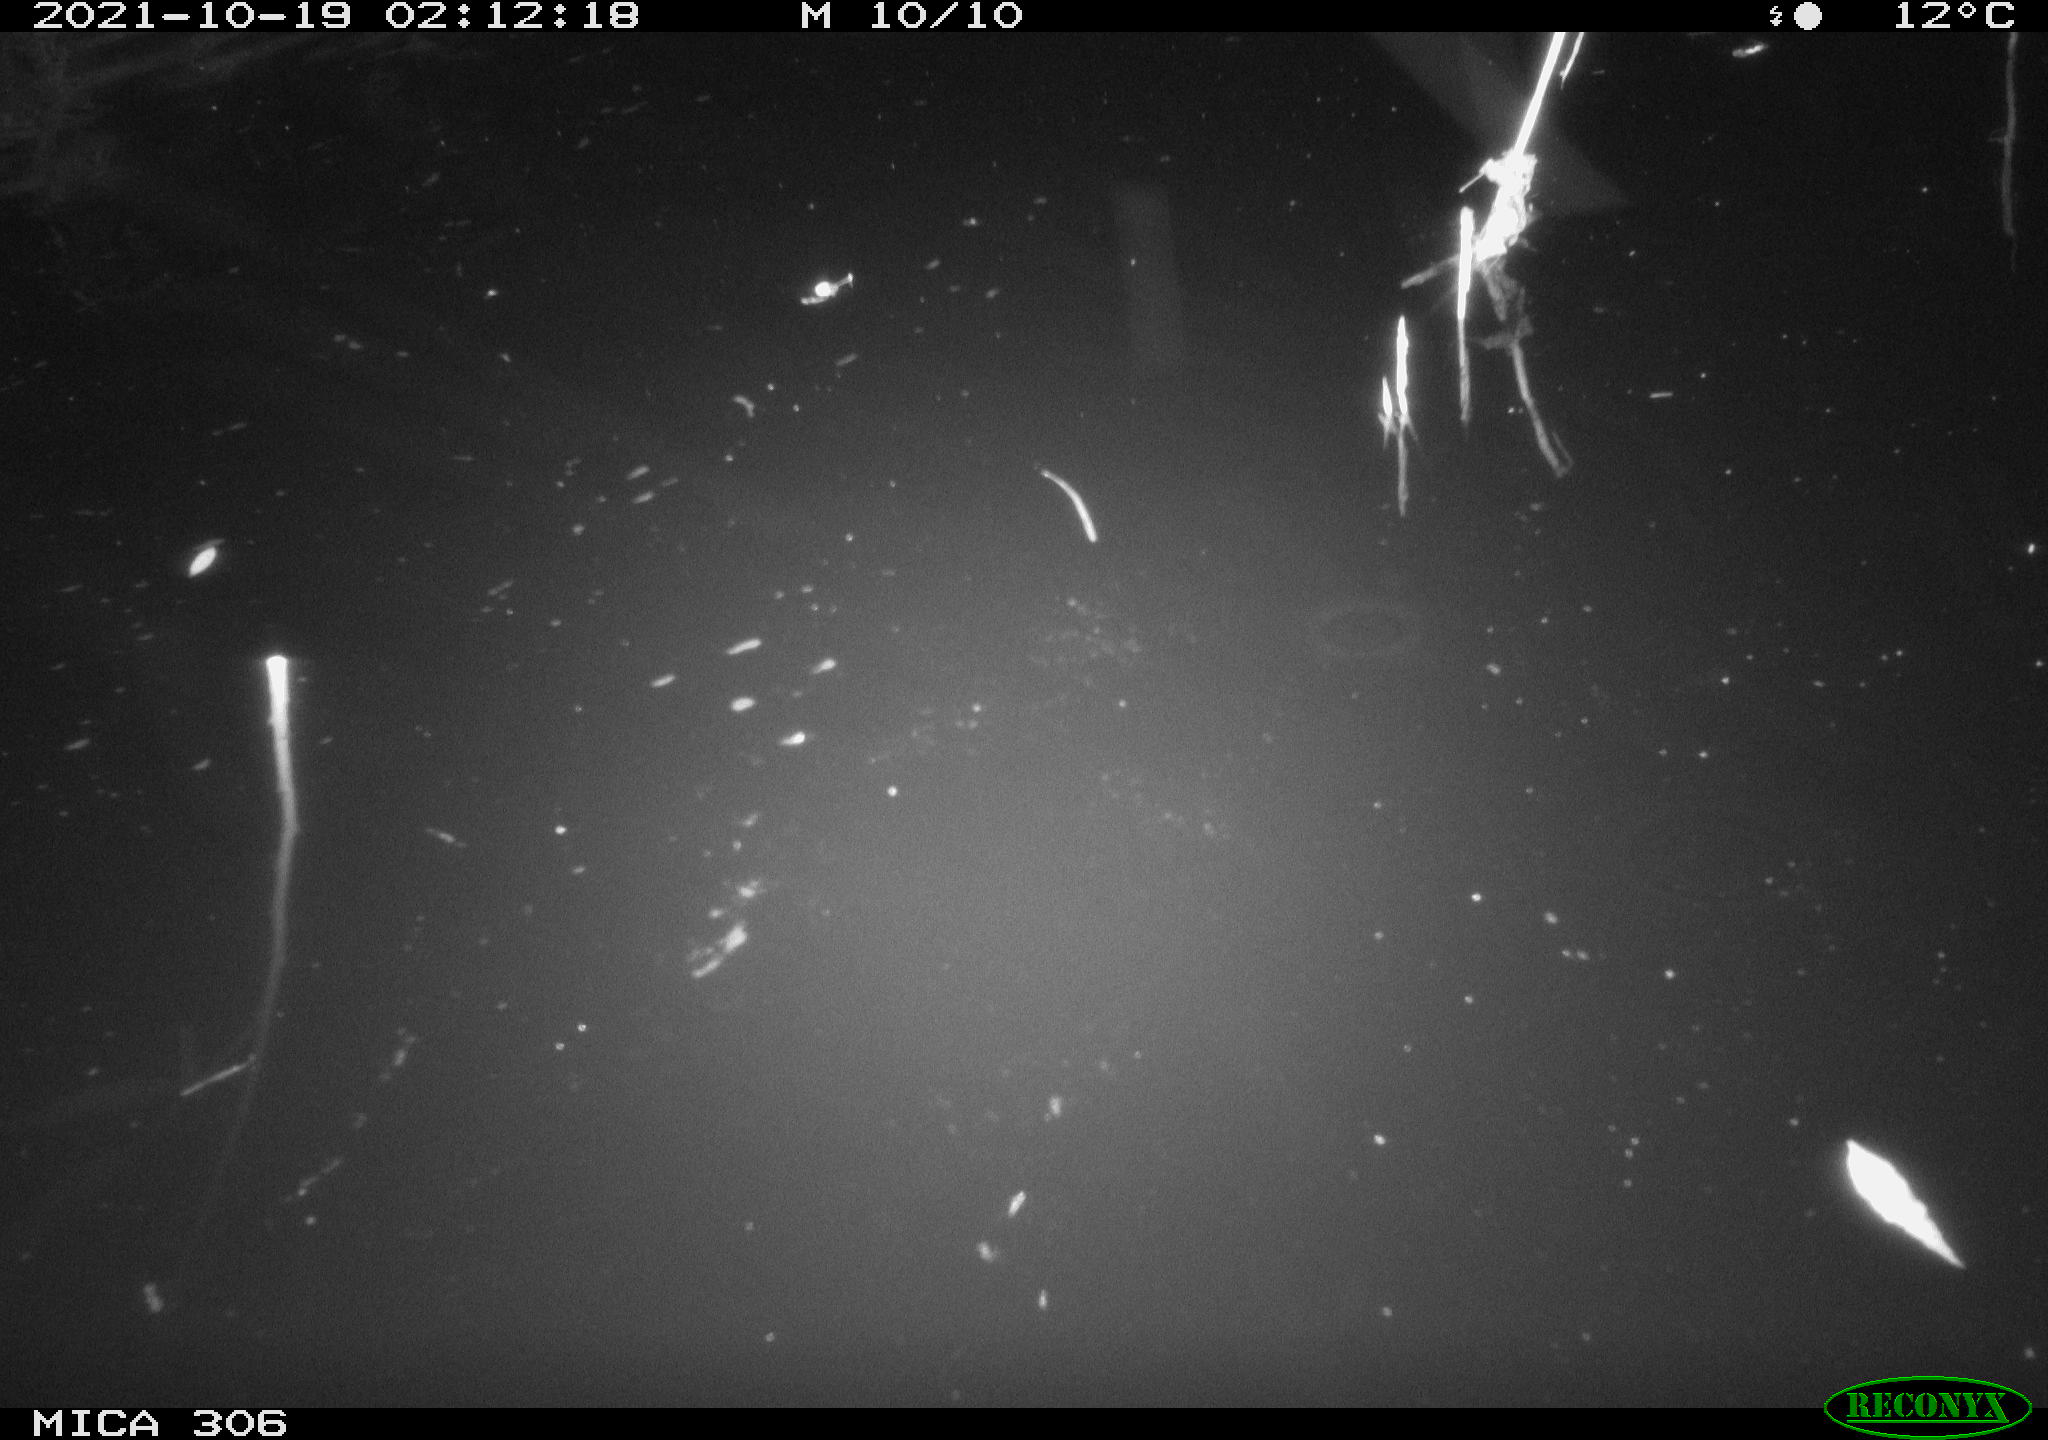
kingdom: Animalia
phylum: Chordata
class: Mammalia
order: Rodentia
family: Cricetidae
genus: Ondatra
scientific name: Ondatra zibethicus
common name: Muskrat
